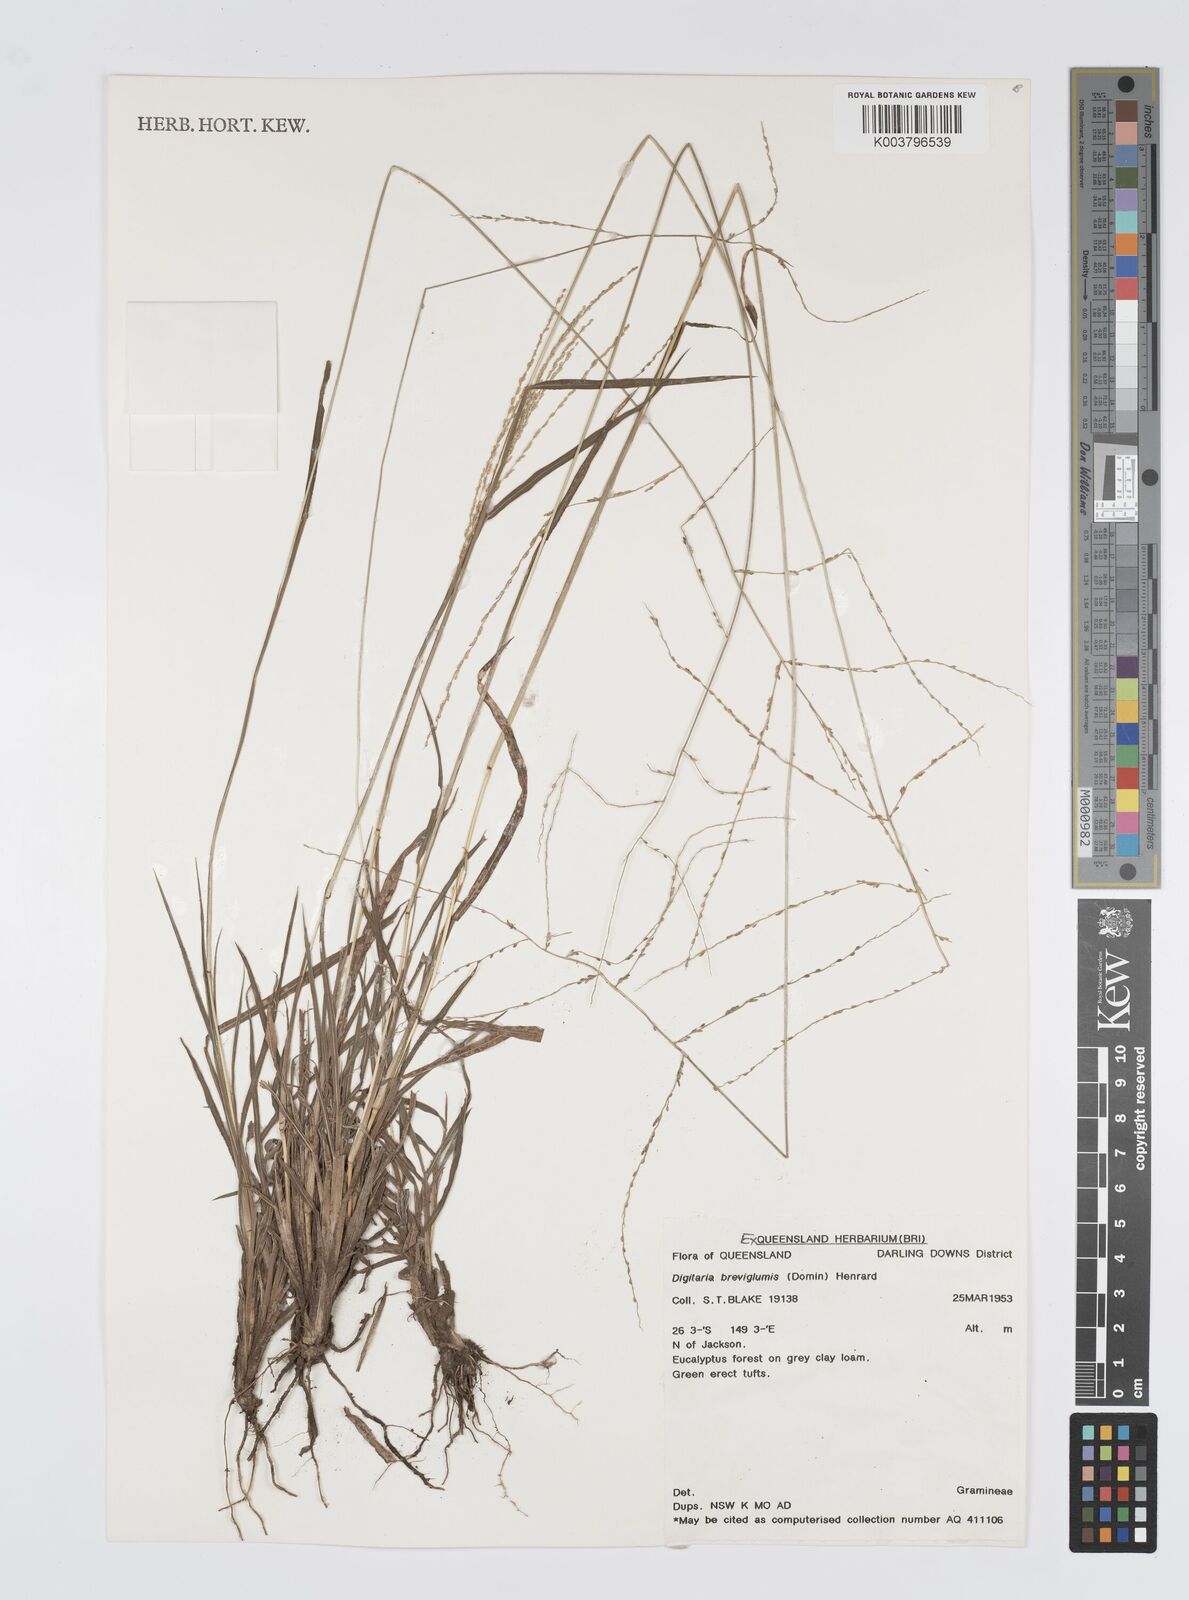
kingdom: Plantae
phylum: Tracheophyta
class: Liliopsida
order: Poales
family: Poaceae
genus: Digitaria
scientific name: Digitaria breviglumis
